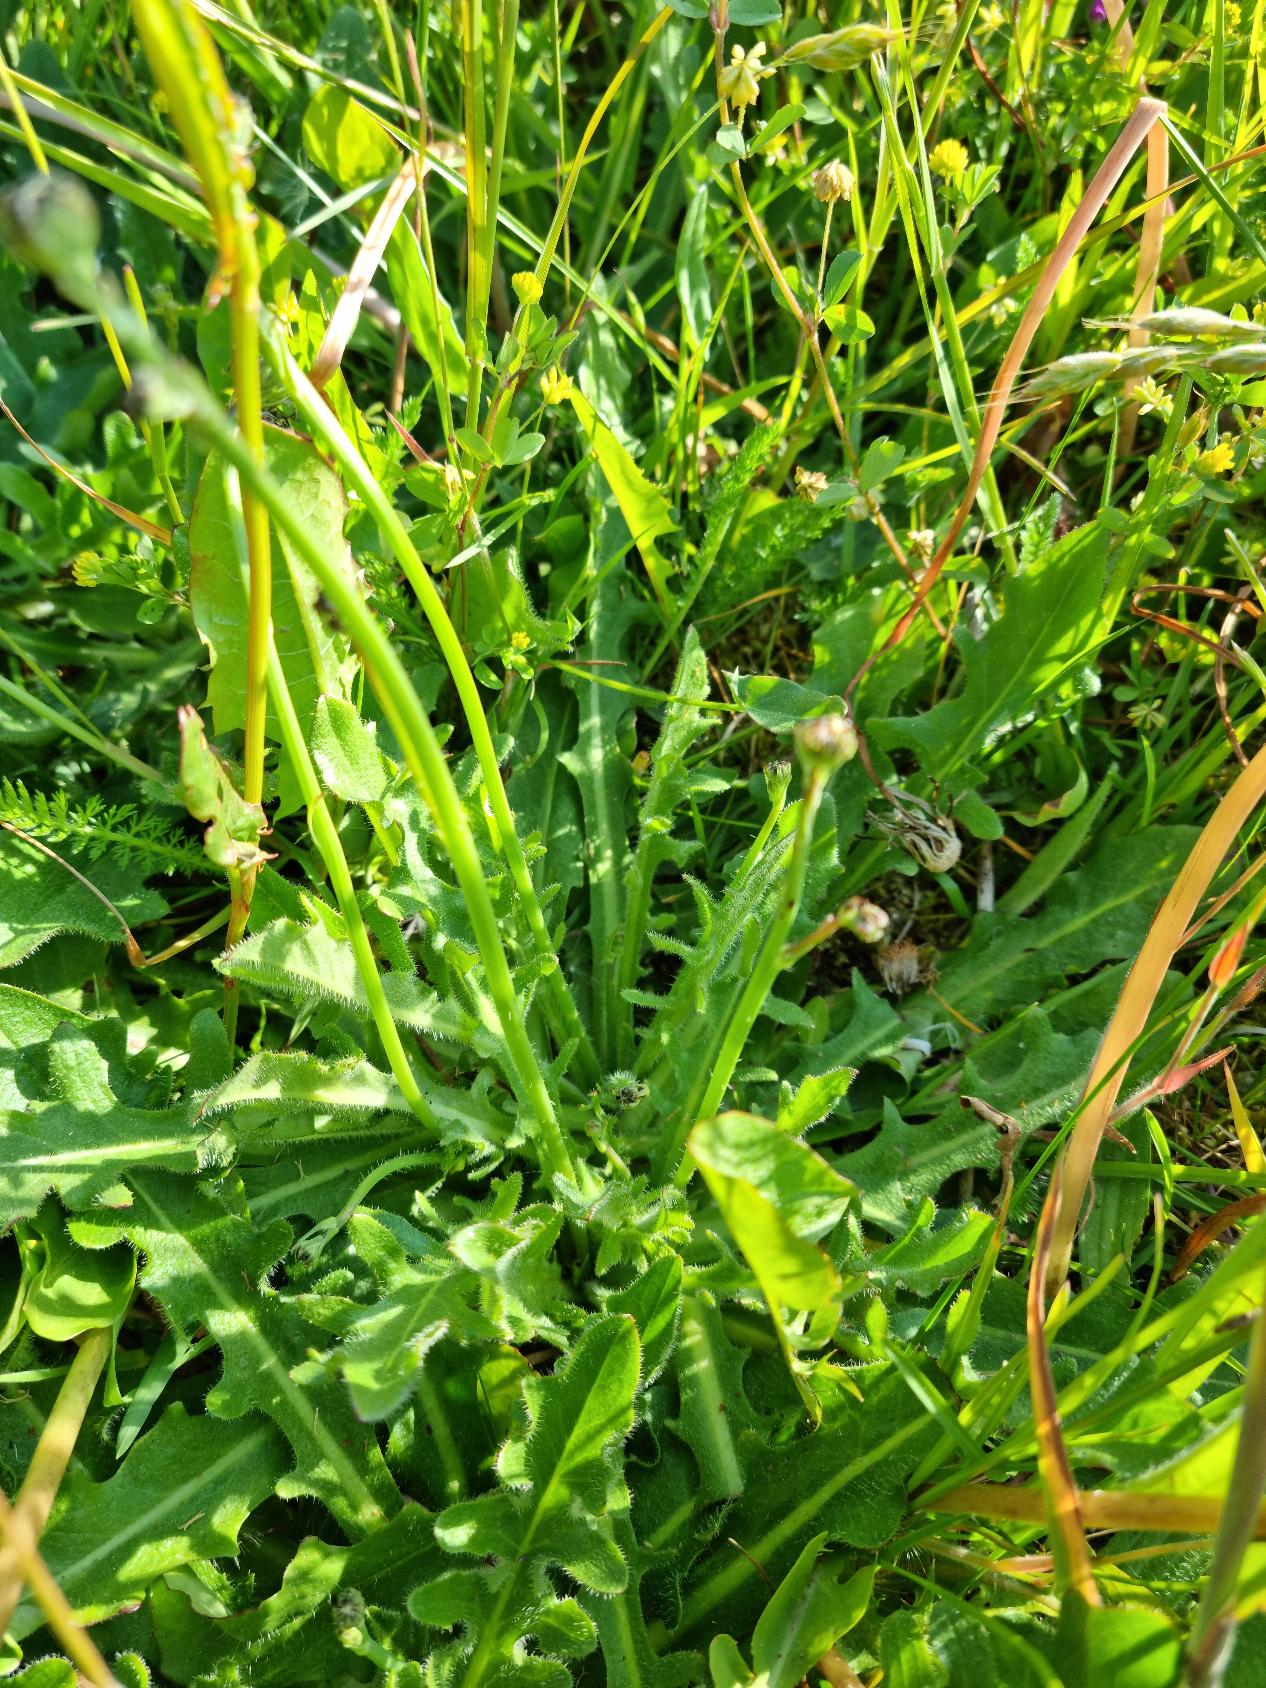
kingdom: Plantae
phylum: Tracheophyta
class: Magnoliopsida
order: Asterales
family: Asteraceae
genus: Hypochaeris
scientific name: Hypochaeris radicata
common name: Almindelig kongepen
